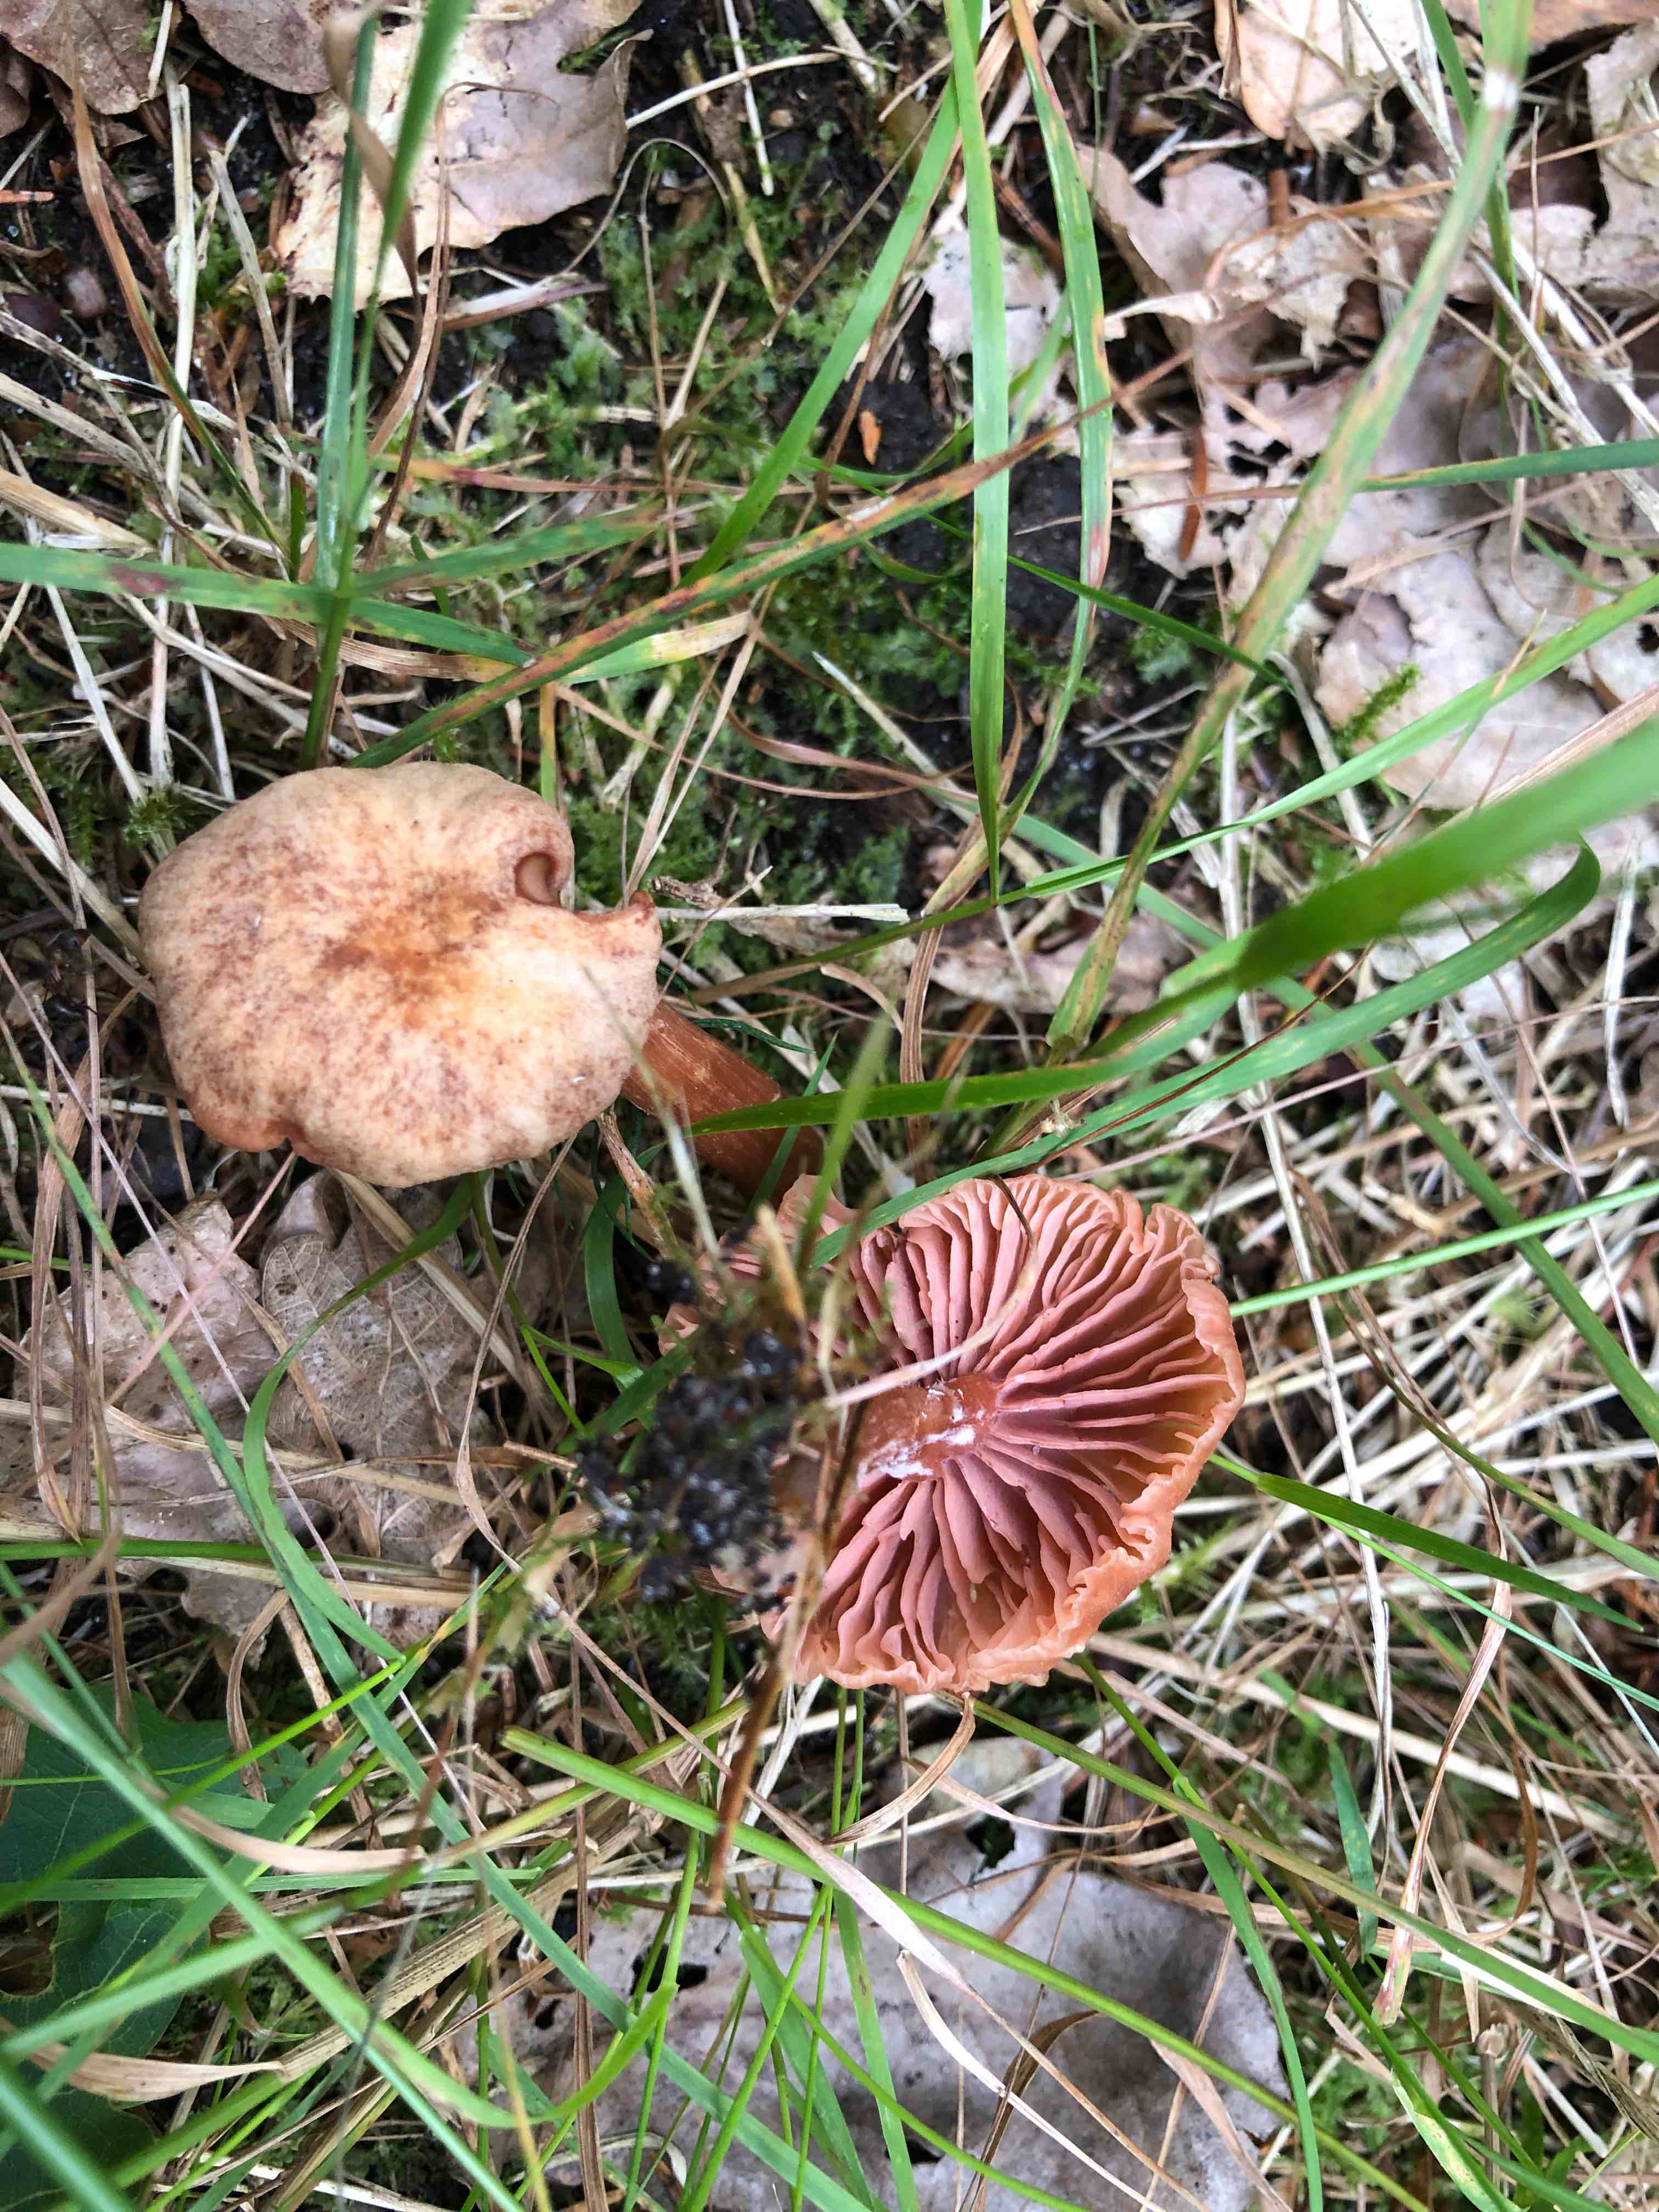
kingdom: Fungi
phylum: Basidiomycota
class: Agaricomycetes
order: Agaricales
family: Hydnangiaceae
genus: Laccaria
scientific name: Laccaria laccata
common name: rød ametysthat
